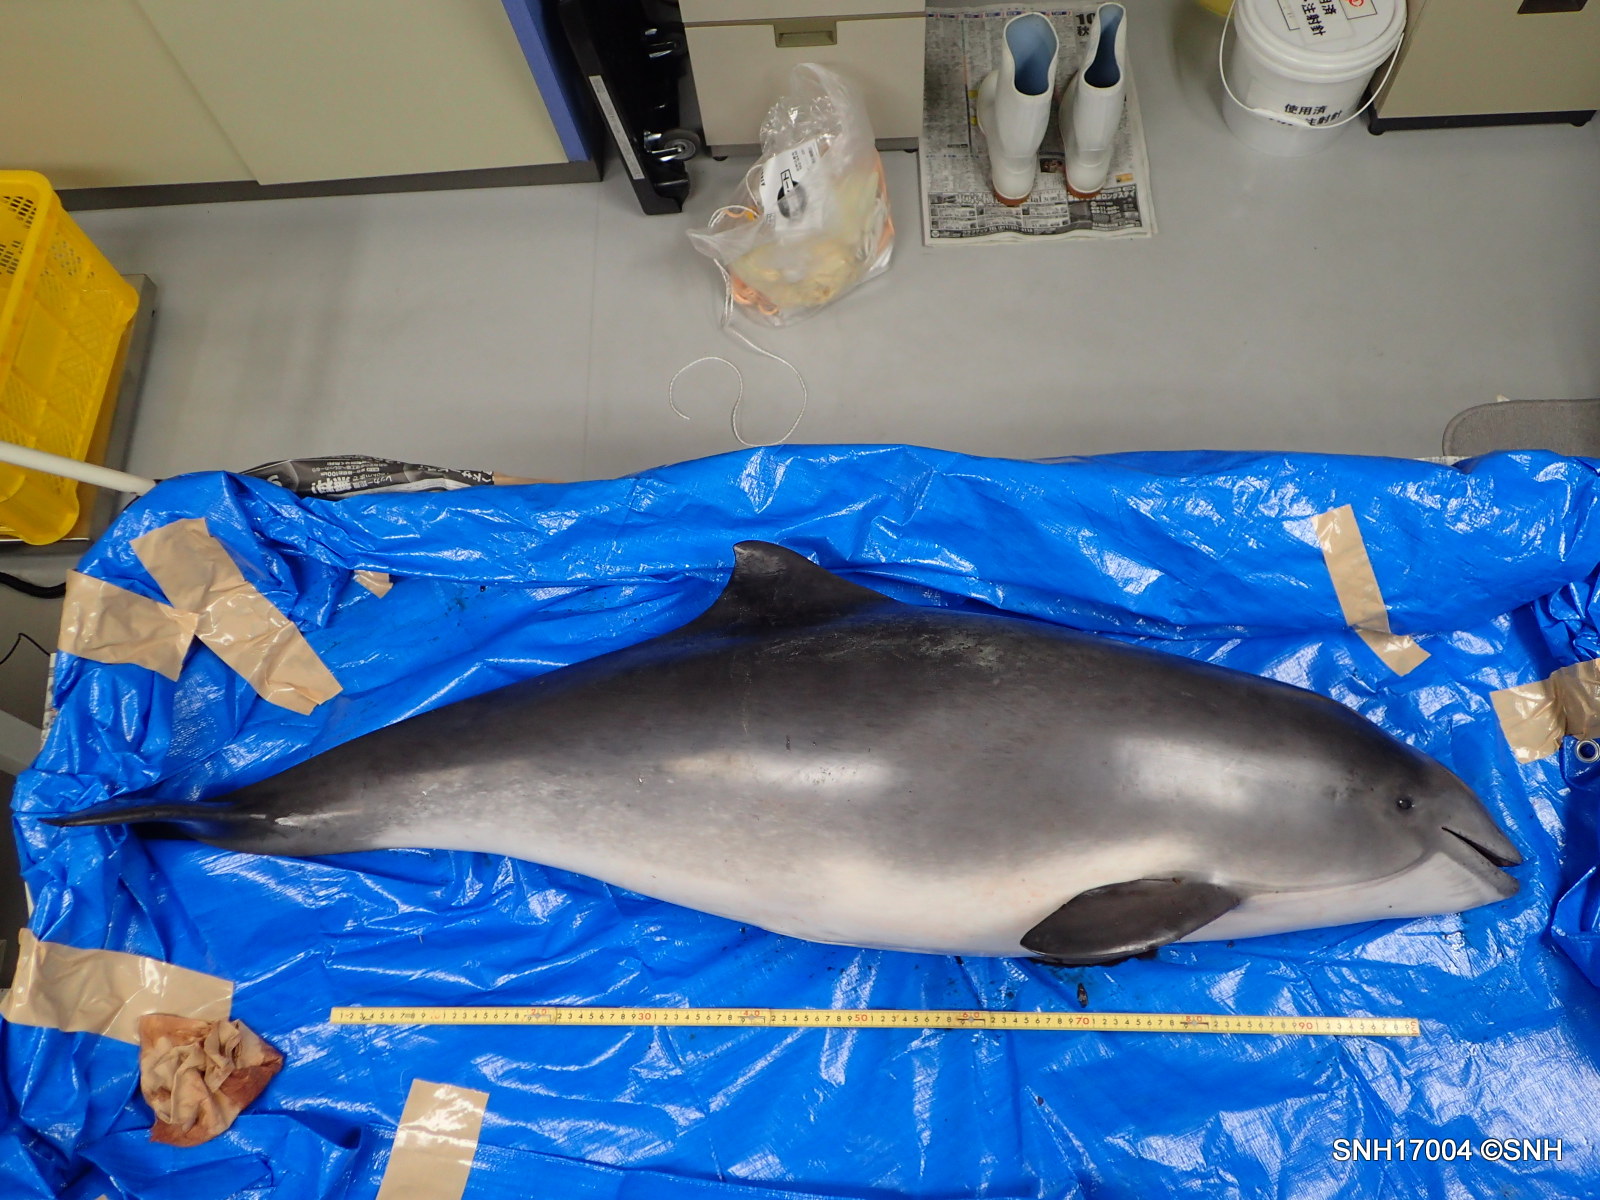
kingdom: Animalia
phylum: Chordata
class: Mammalia
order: Cetacea
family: Phocoenidae
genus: Phocoena
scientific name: Phocoena phocoena
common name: Harbour porpoise
